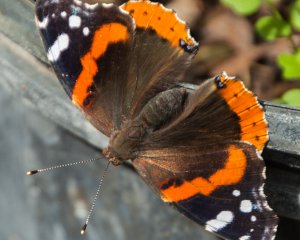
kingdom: Animalia
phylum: Arthropoda
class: Insecta
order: Lepidoptera
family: Nymphalidae
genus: Vanessa
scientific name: Vanessa atalanta
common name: Red Admiral
